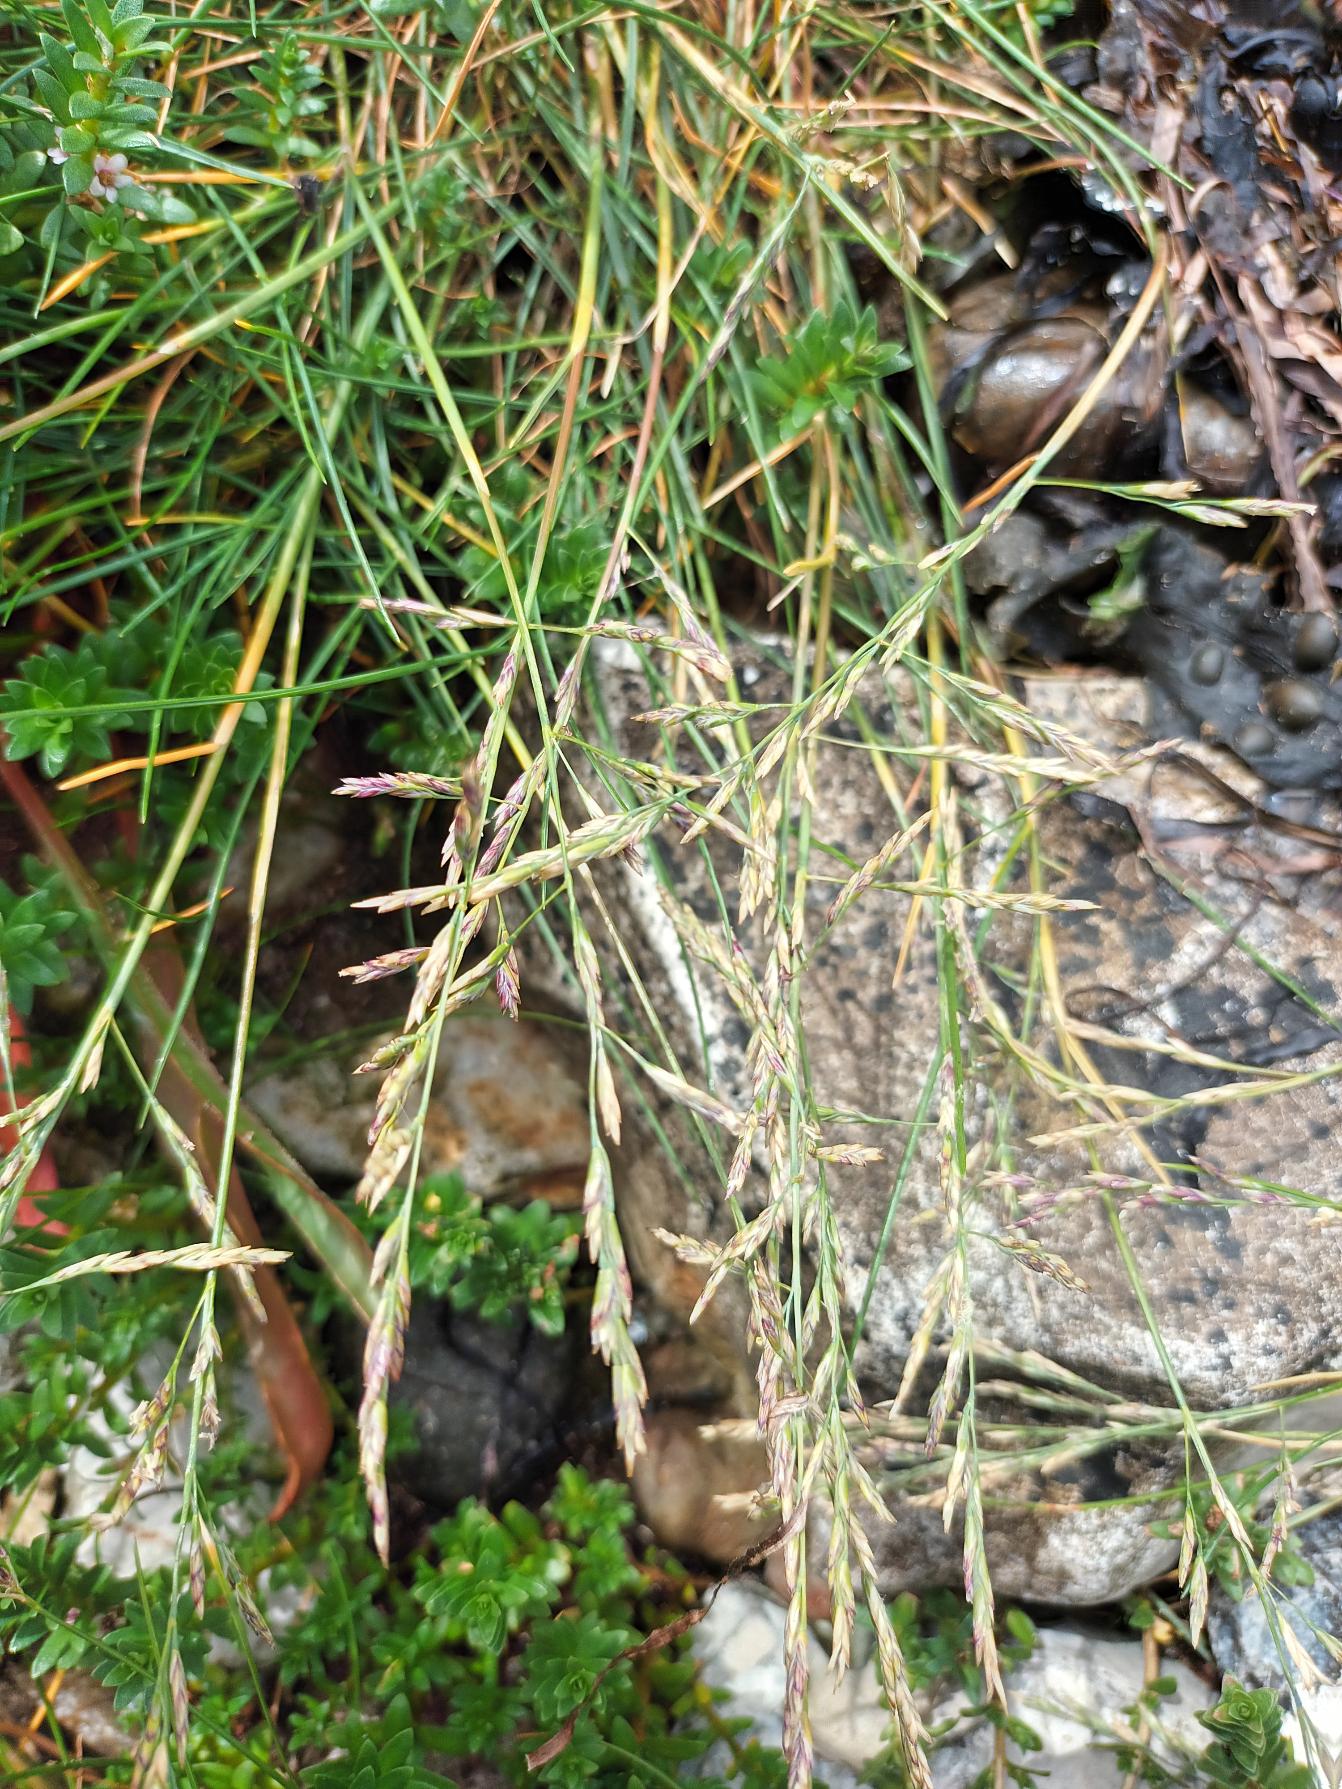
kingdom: Plantae
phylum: Tracheophyta
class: Liliopsida
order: Poales
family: Poaceae
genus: Puccinellia
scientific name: Puccinellia maritima
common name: Strand-annelgræs
